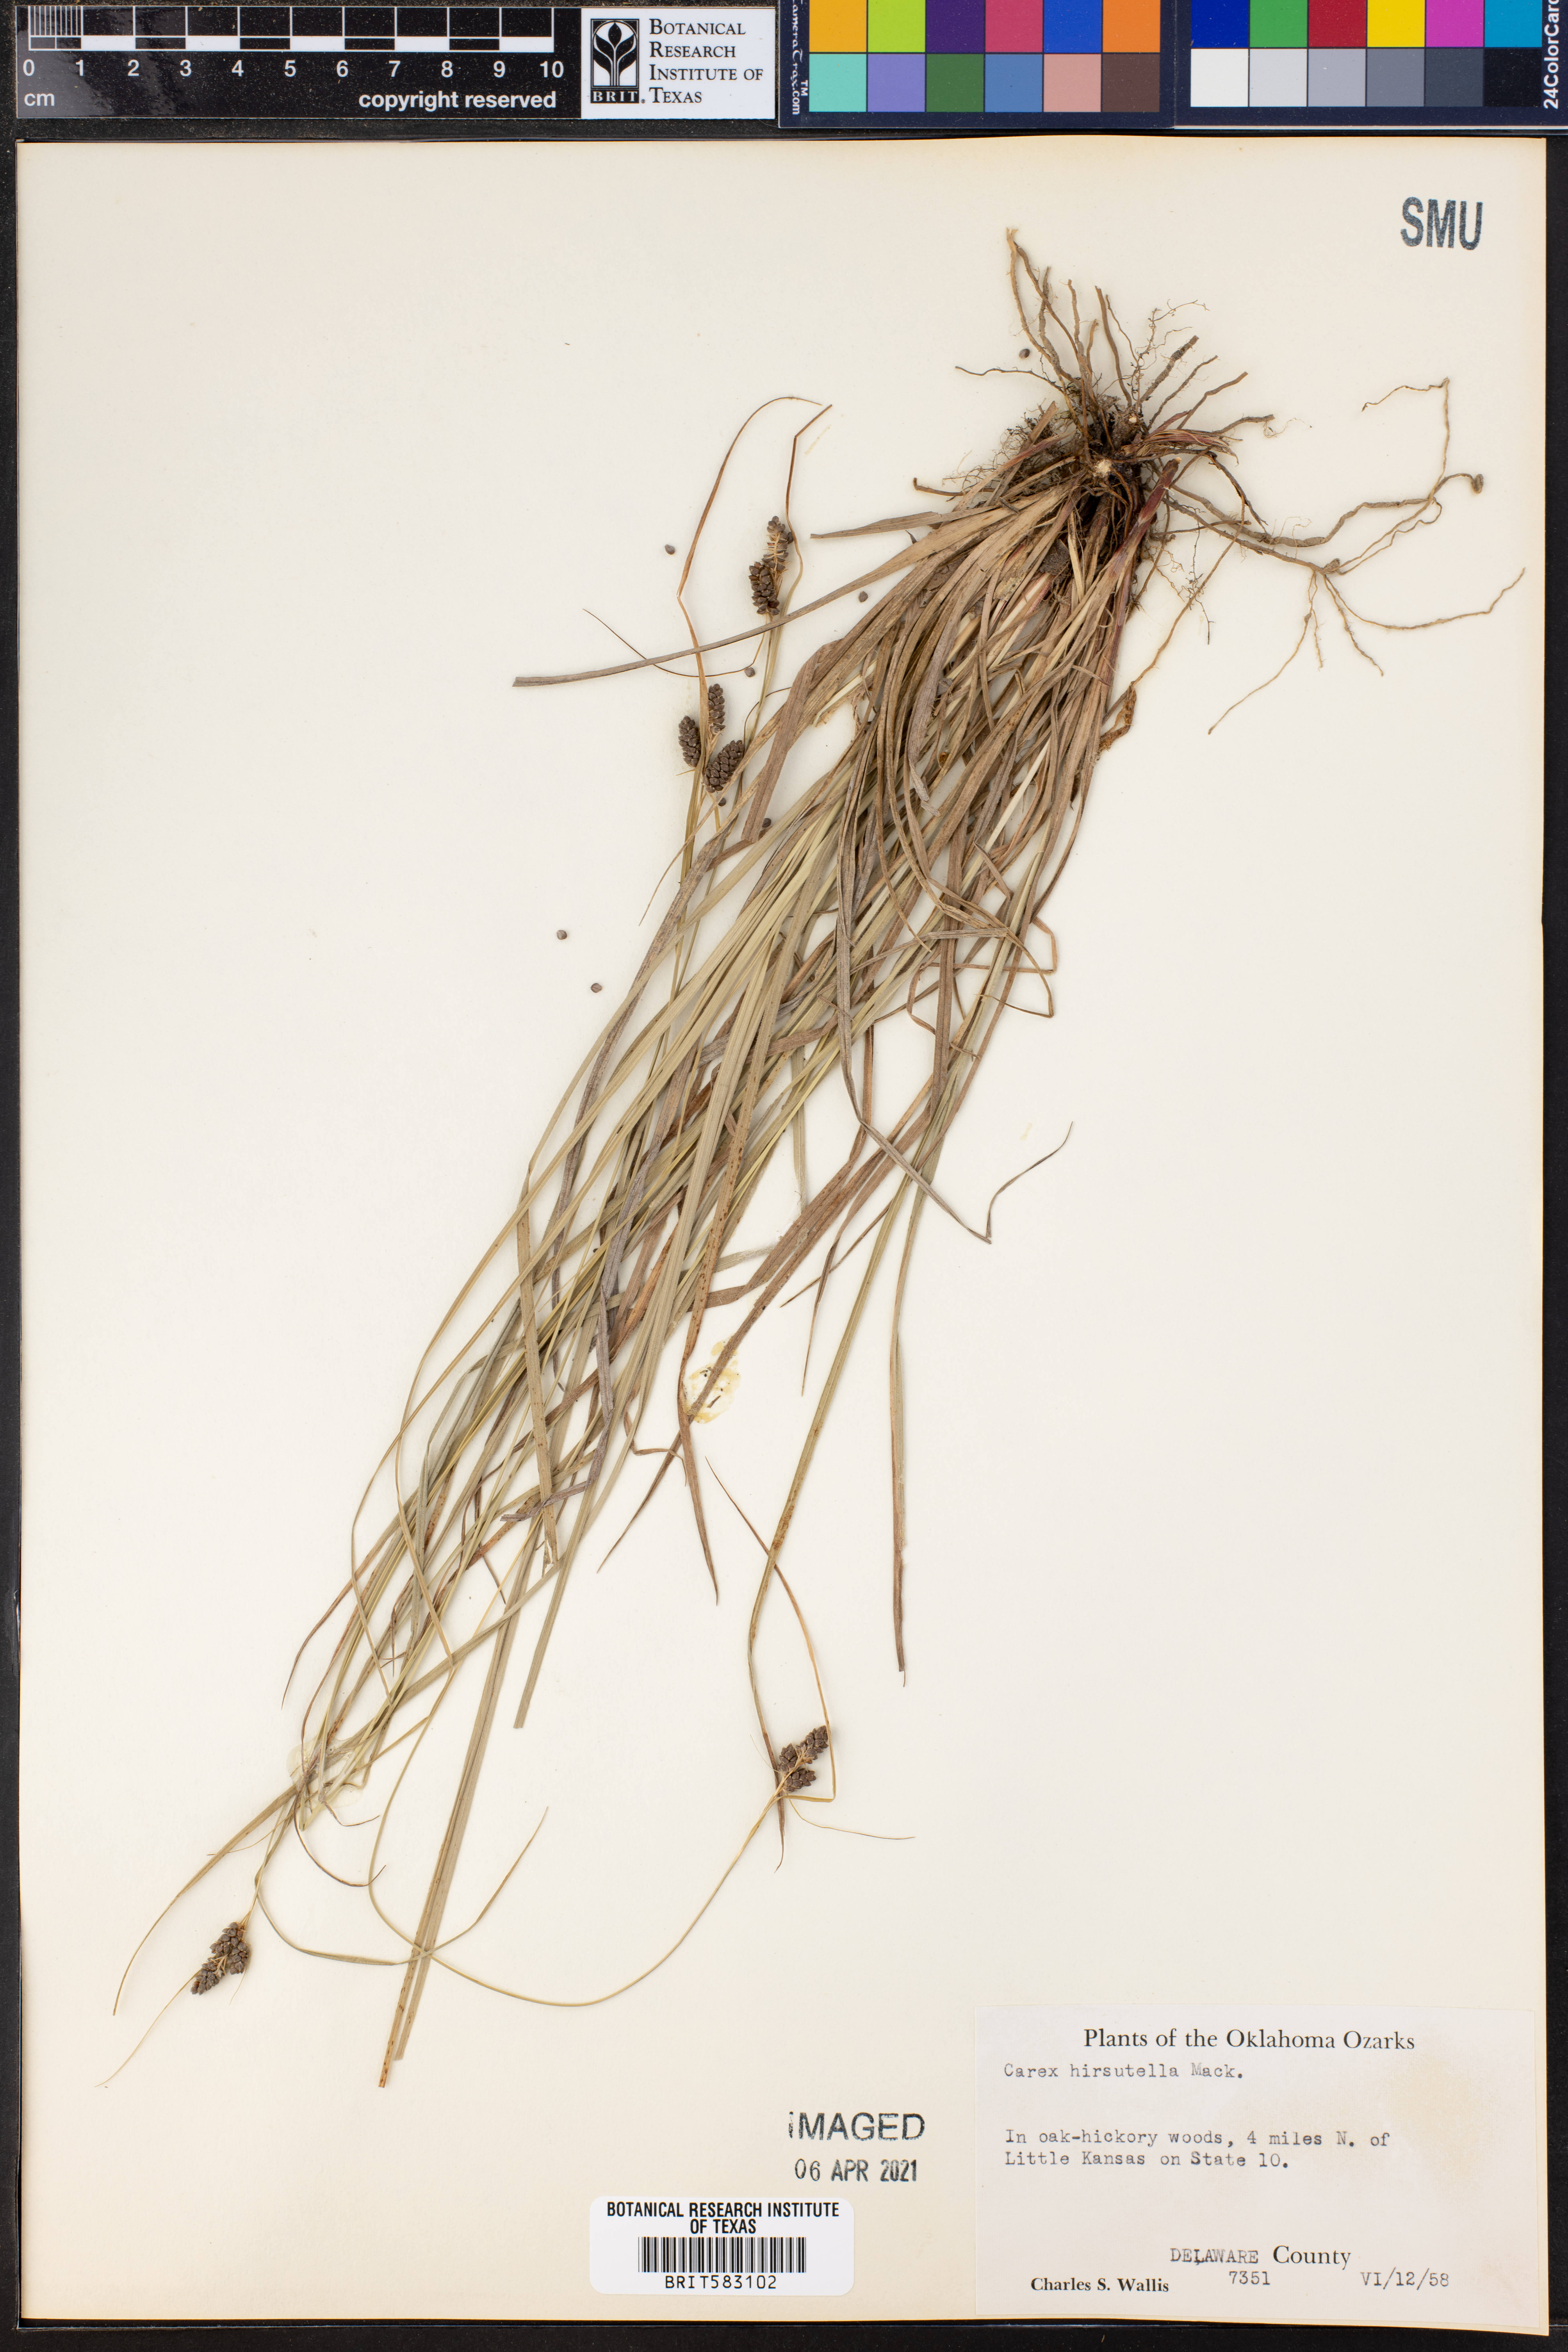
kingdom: Plantae
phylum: Tracheophyta
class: Liliopsida
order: Poales
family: Cyperaceae
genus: Carex
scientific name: Carex hirsutella
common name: Fuzzy wuzzy sedge
